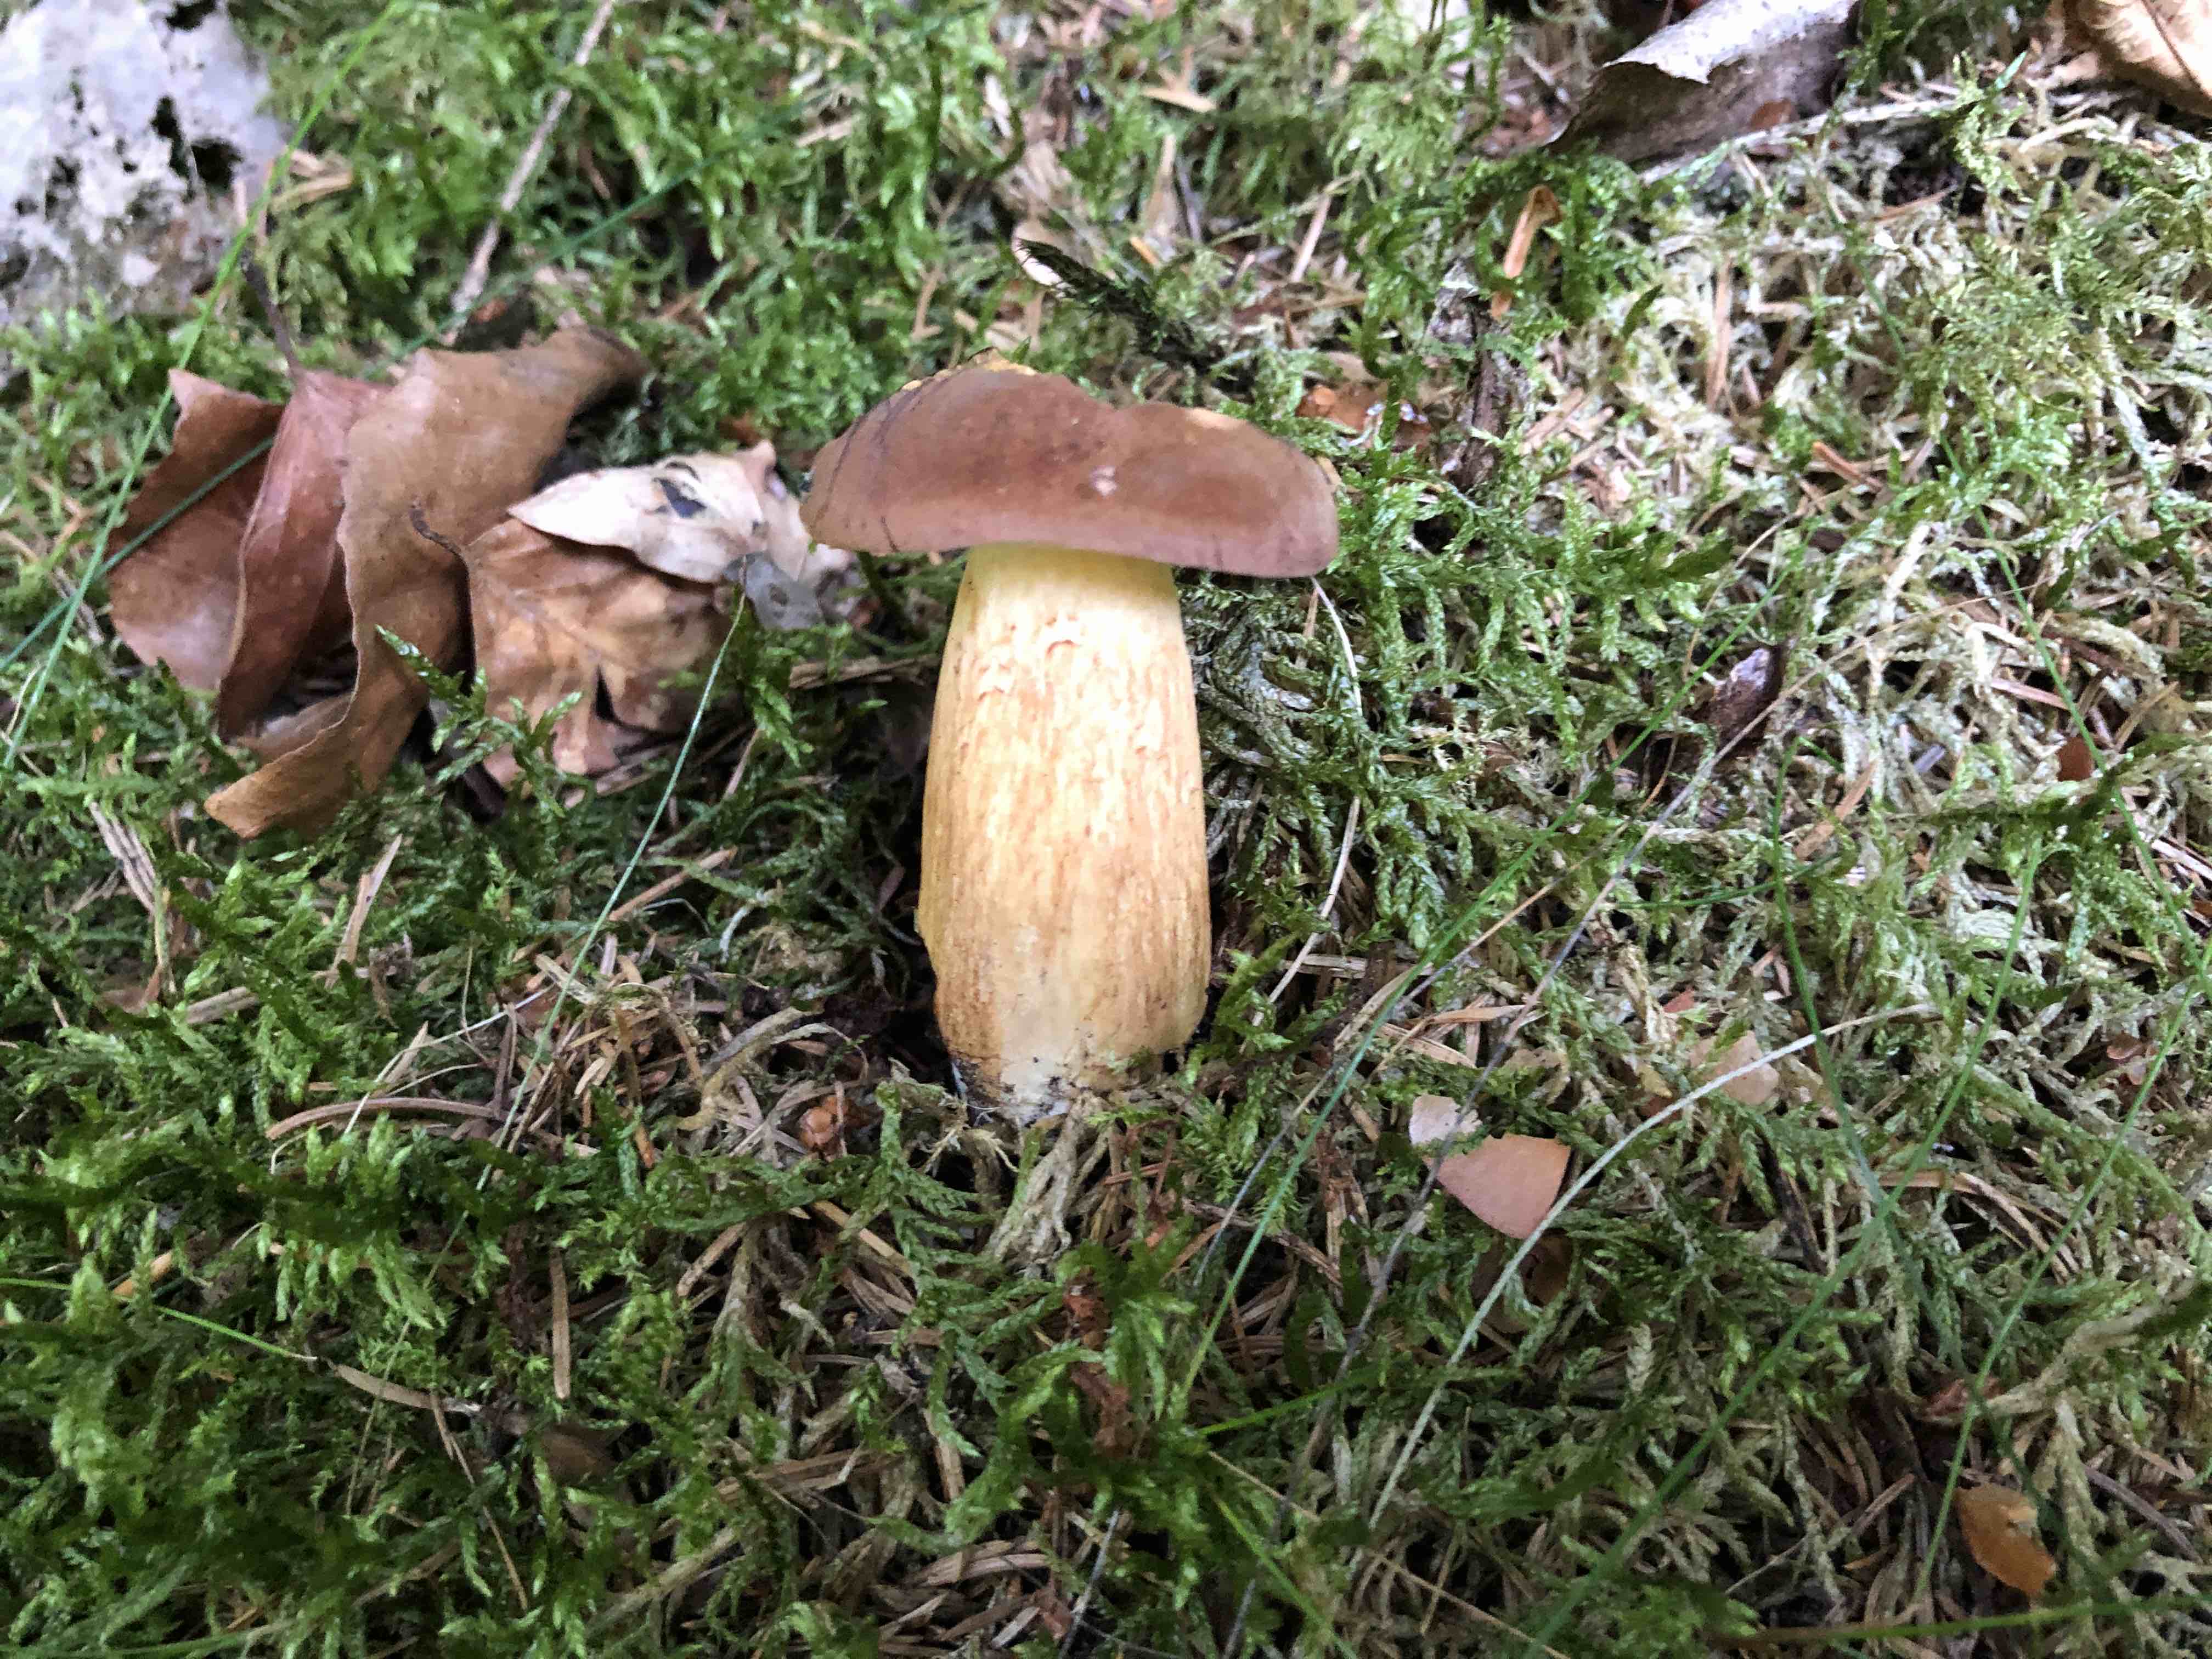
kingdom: Fungi
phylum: Basidiomycota
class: Agaricomycetes
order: Boletales
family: Boletaceae
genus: Imleria
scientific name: Imleria badia
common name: brunstokket rørhat
